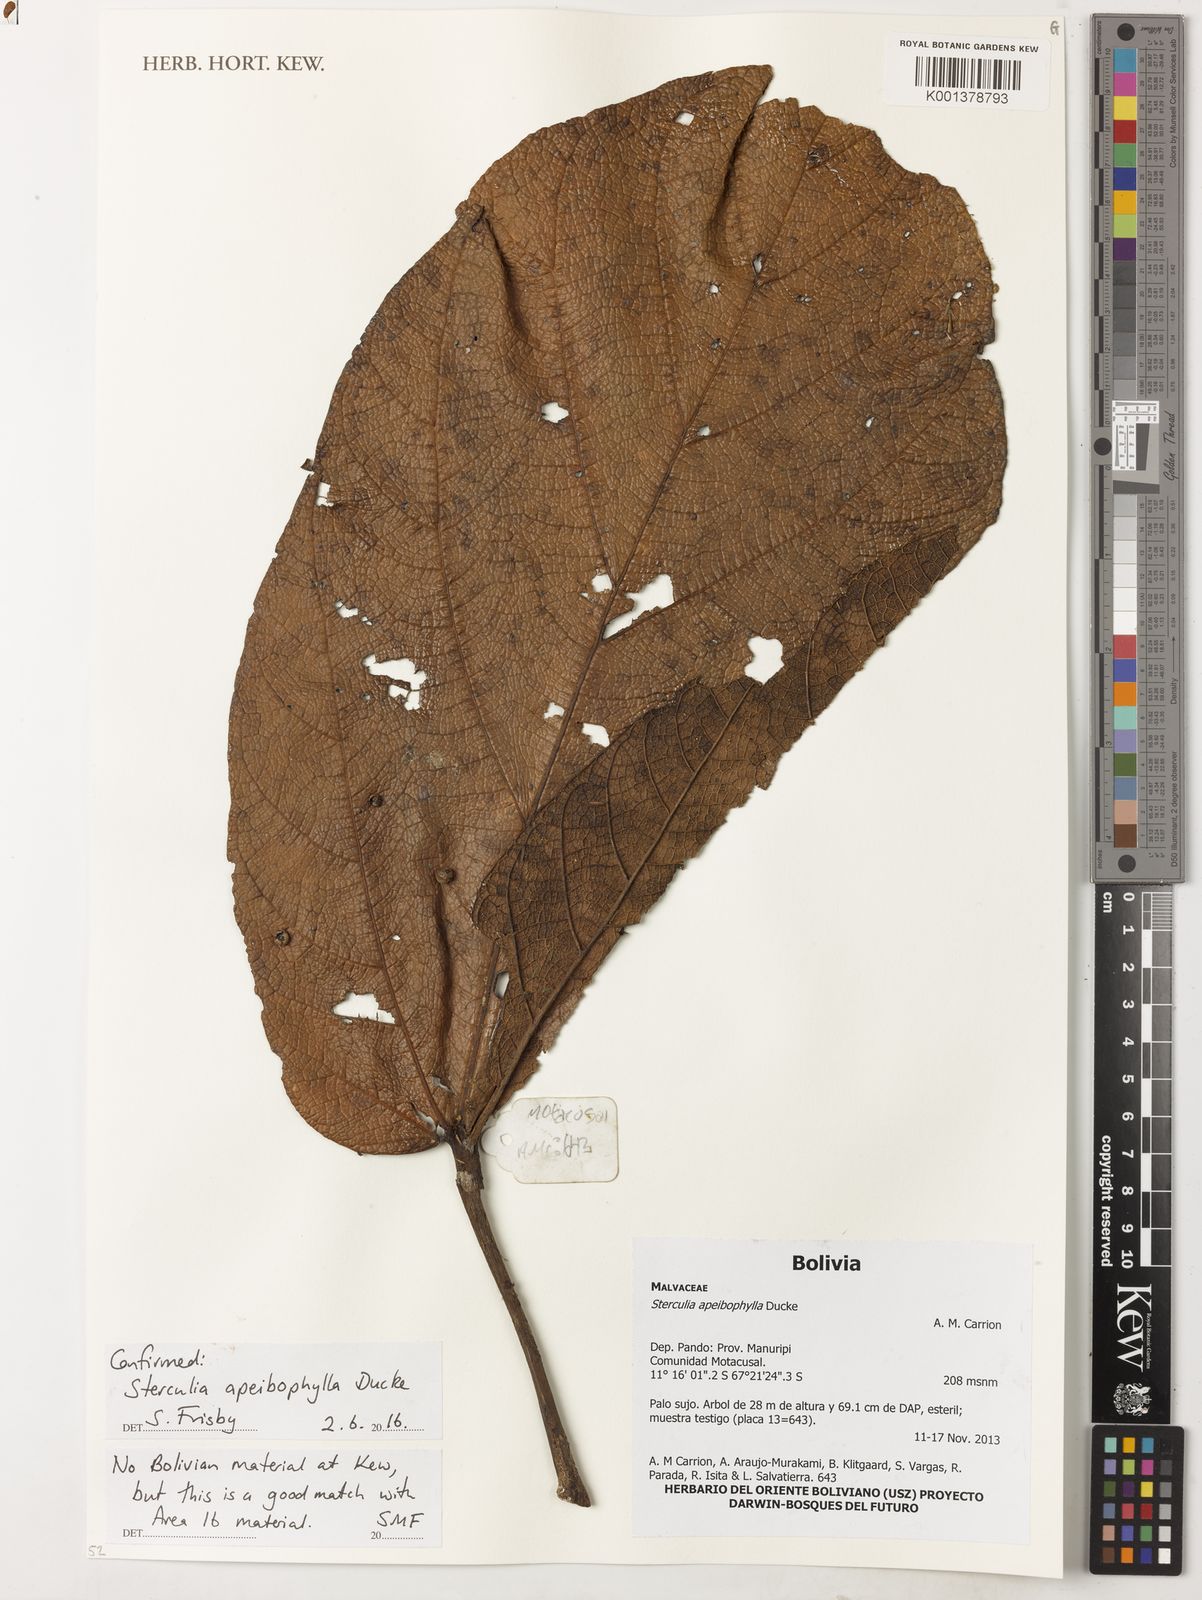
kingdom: Plantae
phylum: Tracheophyta
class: Magnoliopsida
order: Malvales
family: Malvaceae
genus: Sterculia
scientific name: Sterculia apeibophylla
